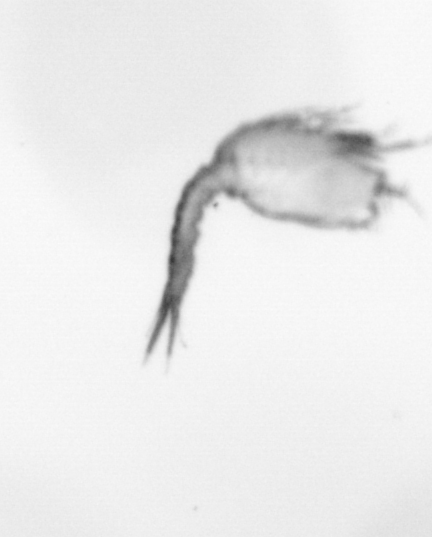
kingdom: Animalia
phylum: Arthropoda
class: Copepoda
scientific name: Copepoda
